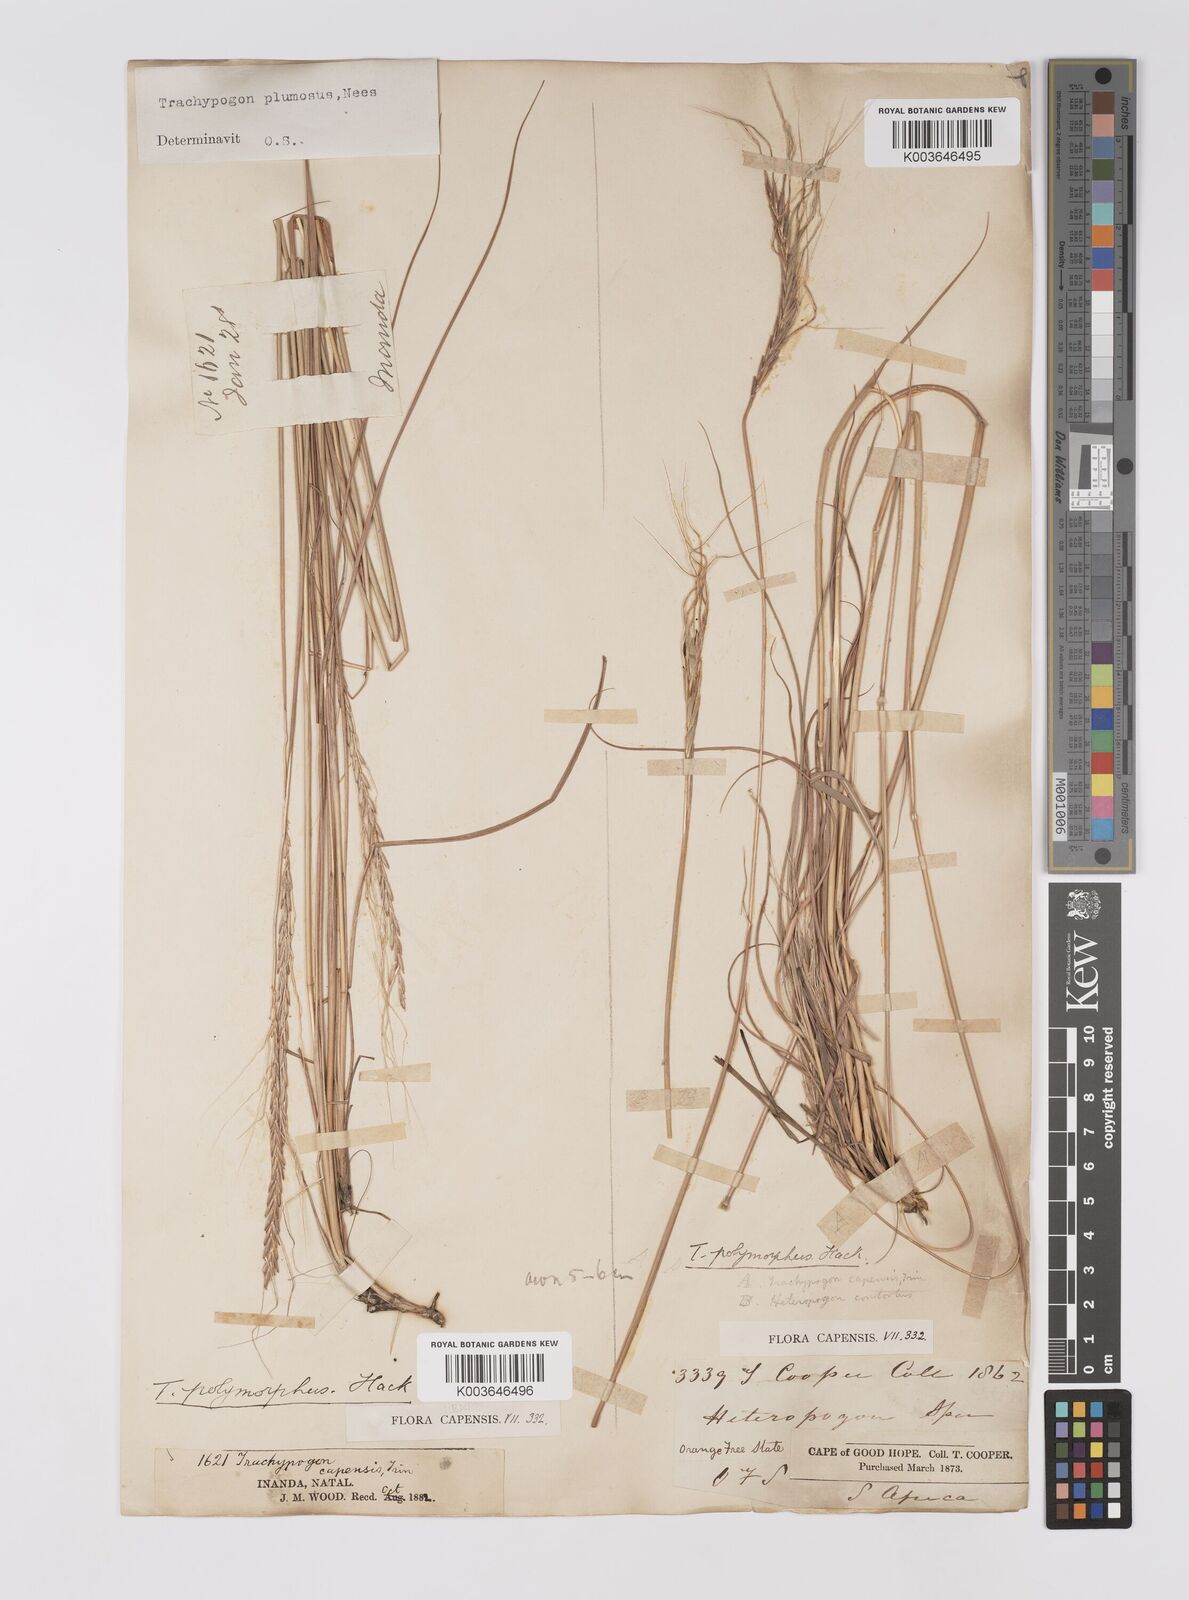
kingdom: Plantae
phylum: Tracheophyta
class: Liliopsida
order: Poales
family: Poaceae
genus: Trachypogon
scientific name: Trachypogon spicatus
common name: Crinkle-awn
